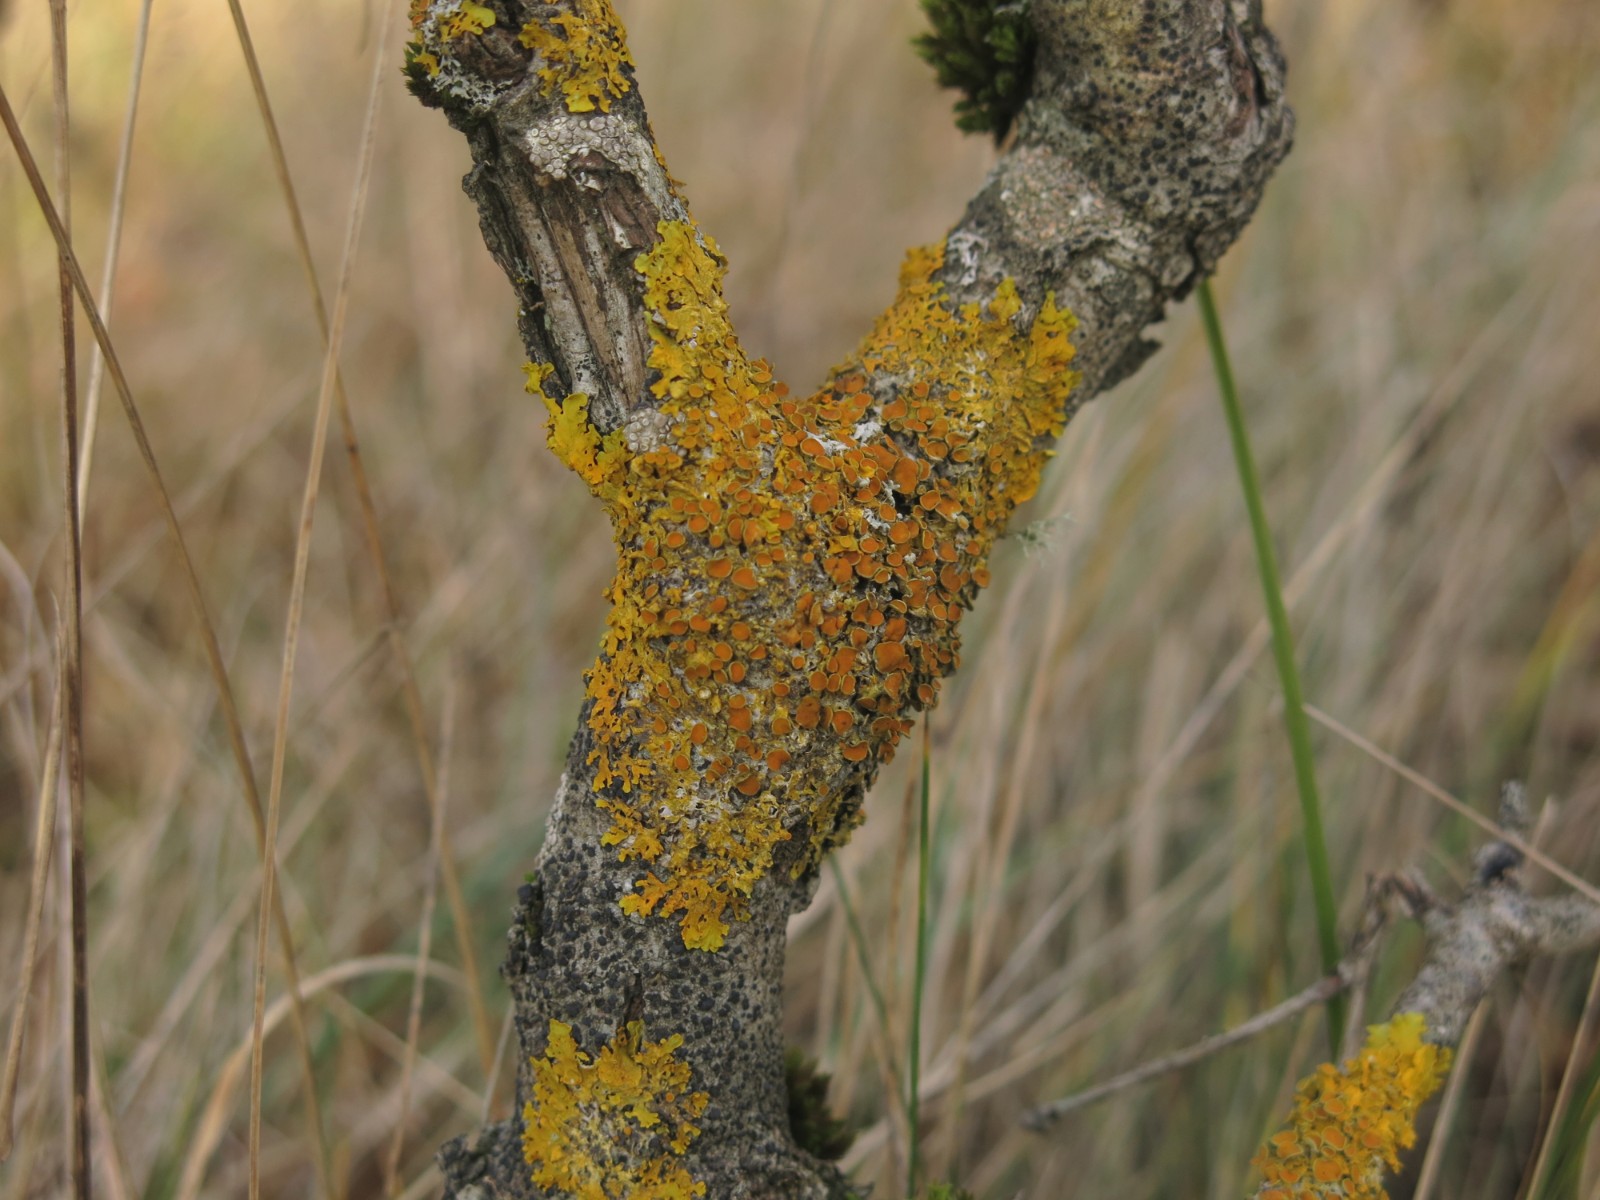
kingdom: Fungi
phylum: Ascomycota
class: Lecanoromycetes
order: Teloschistales
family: Teloschistaceae
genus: Xanthoria
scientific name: Xanthoria parietina
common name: almindelig væggelav
